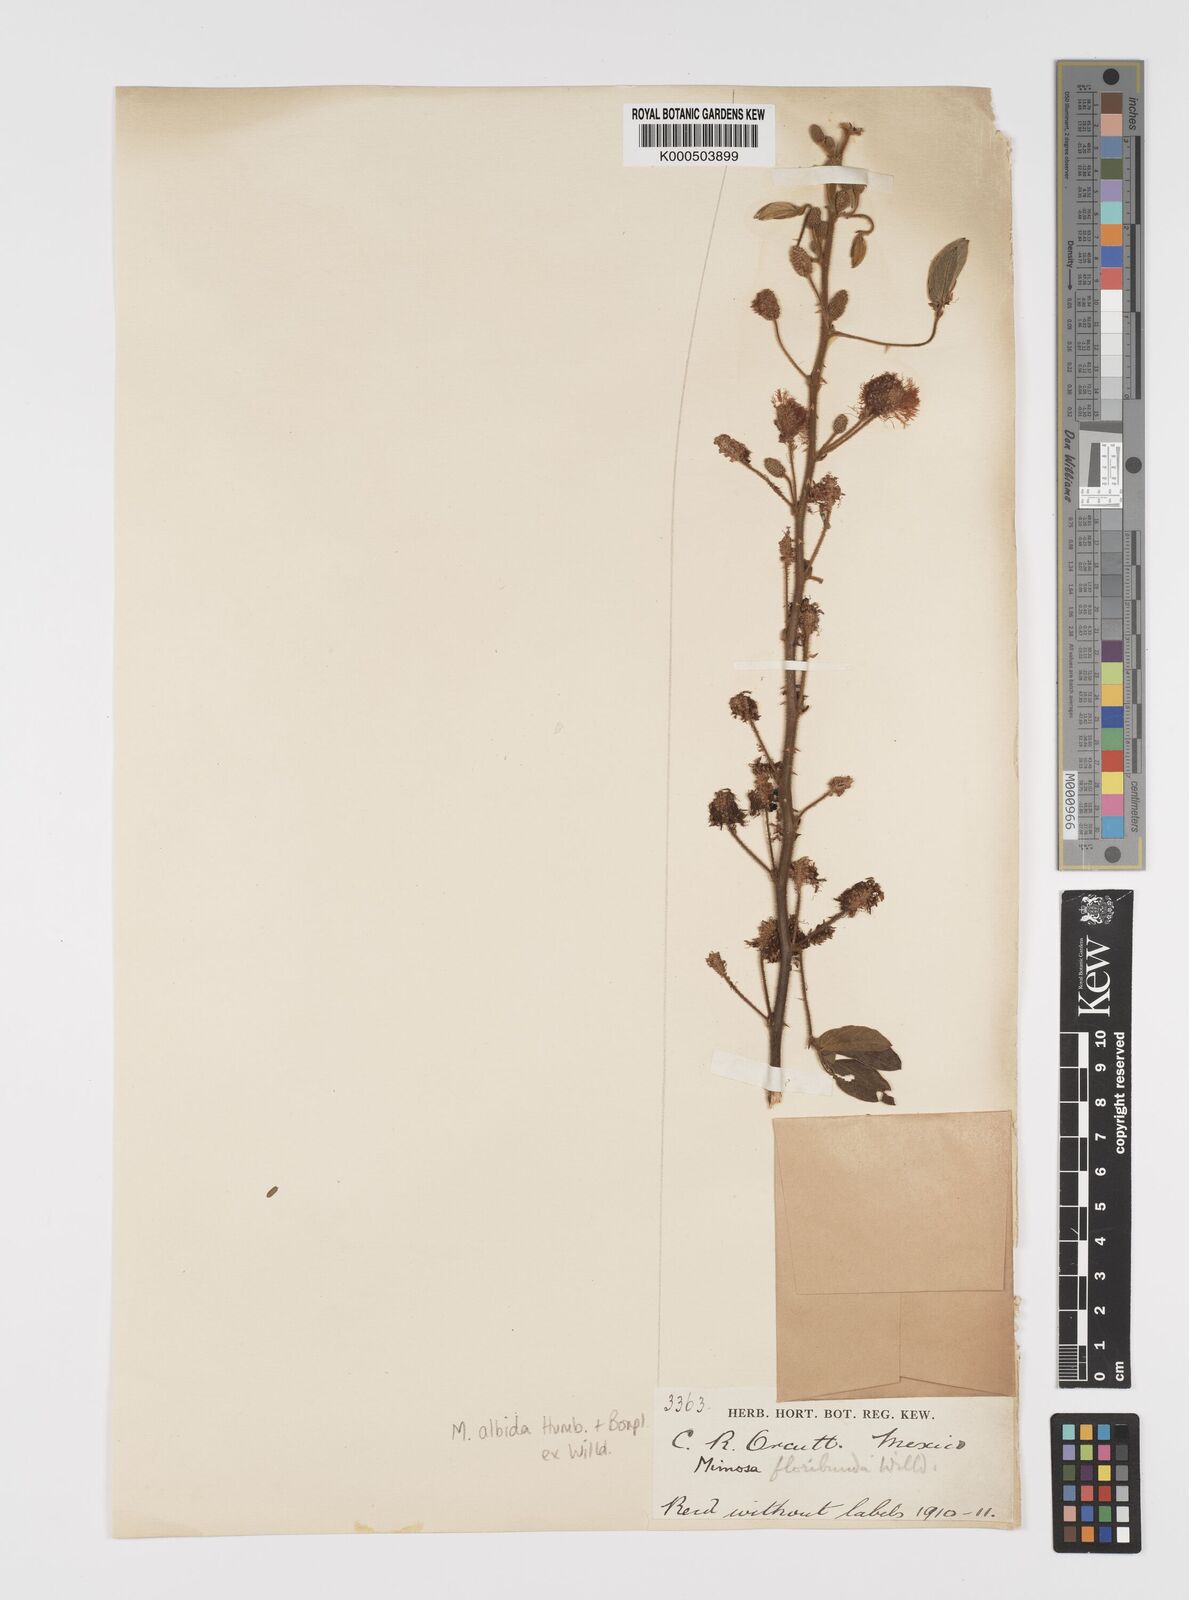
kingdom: Plantae
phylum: Tracheophyta
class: Magnoliopsida
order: Fabales
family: Fabaceae
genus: Mimosa
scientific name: Mimosa albida
